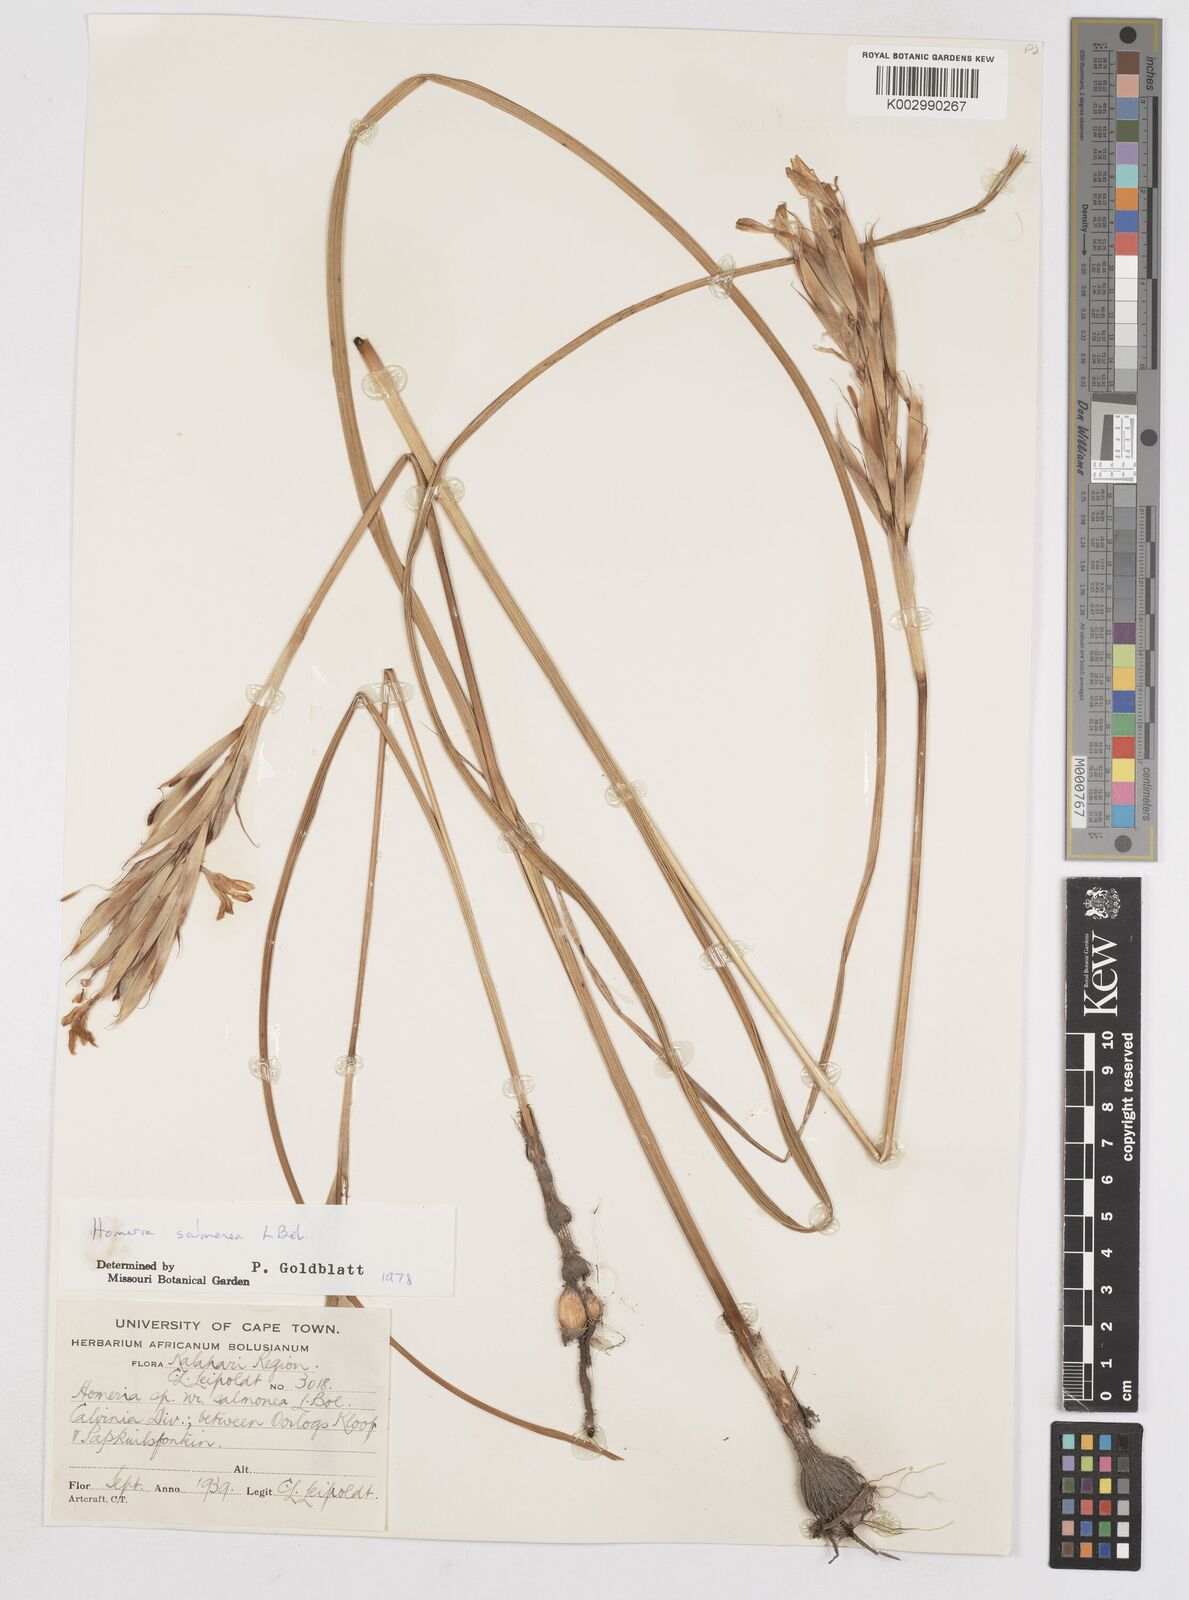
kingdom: Plantae
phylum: Tracheophyta
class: Liliopsida
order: Asparagales
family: Iridaceae
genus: Moraea
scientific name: Moraea bifida
